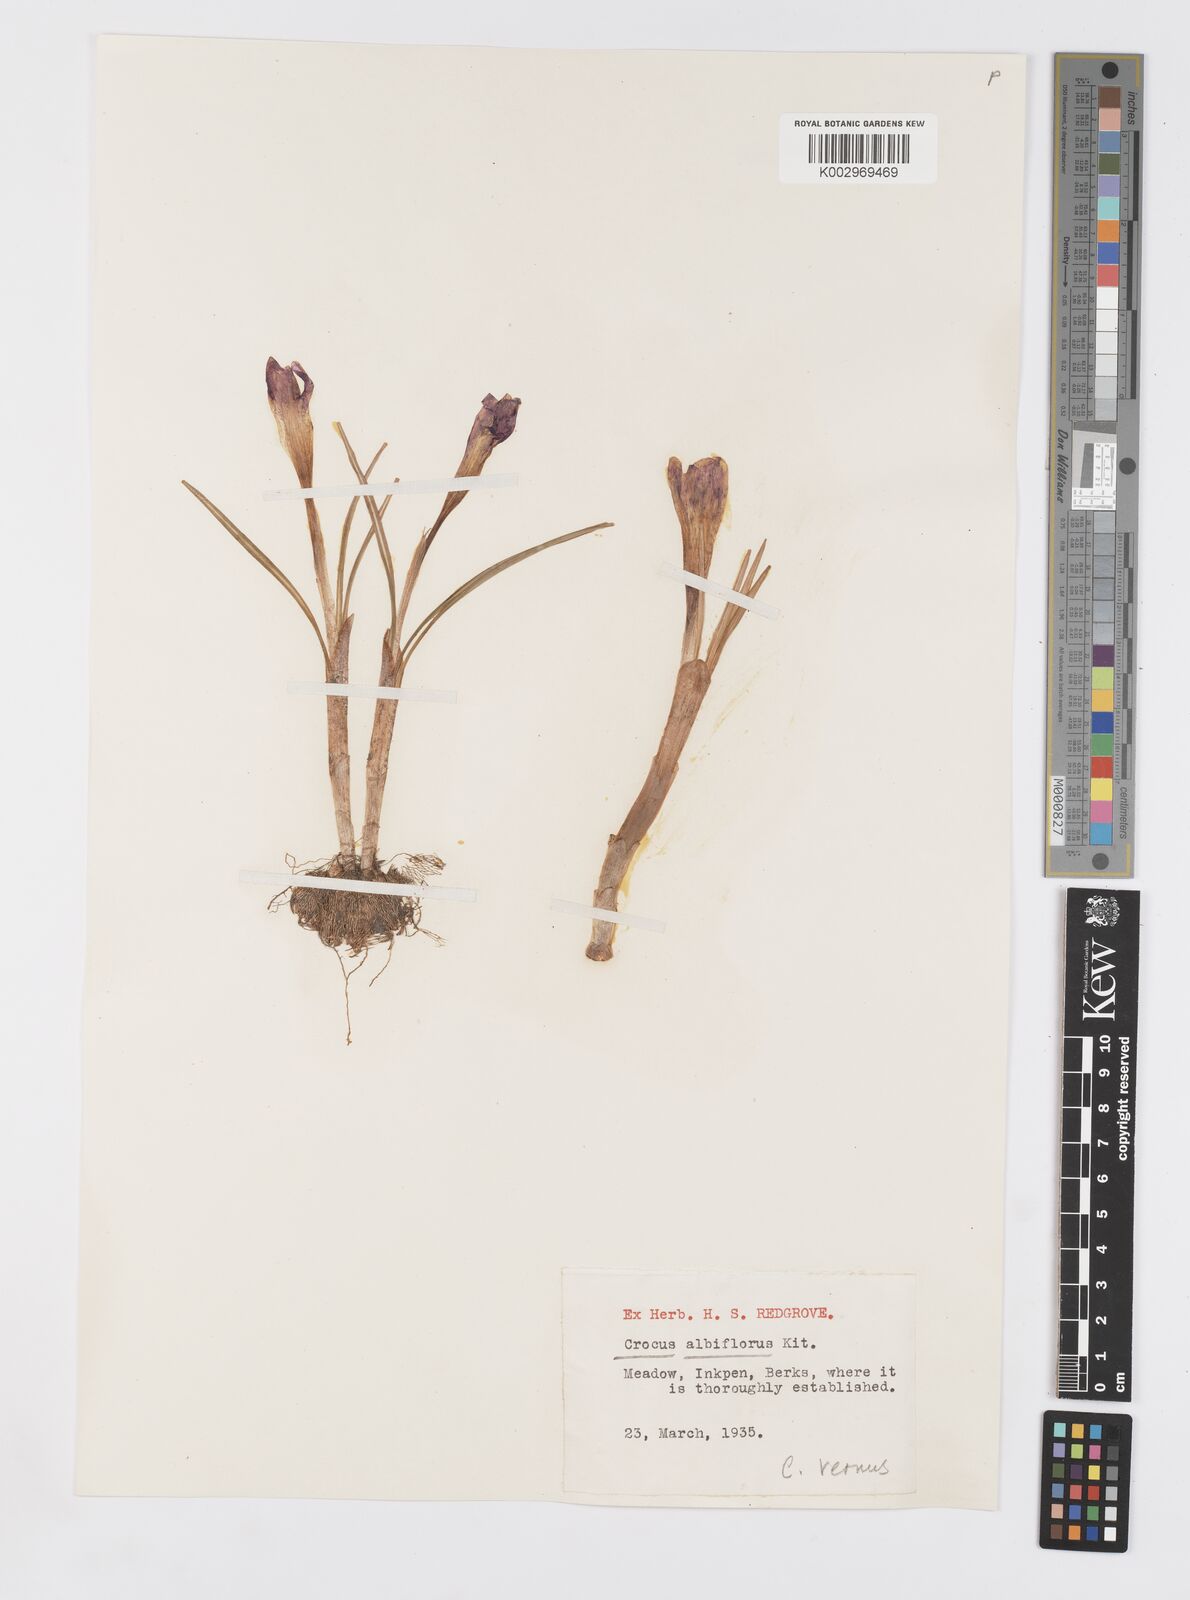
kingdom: Plantae
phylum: Tracheophyta
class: Liliopsida
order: Asparagales
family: Iridaceae
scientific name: Iridaceae
